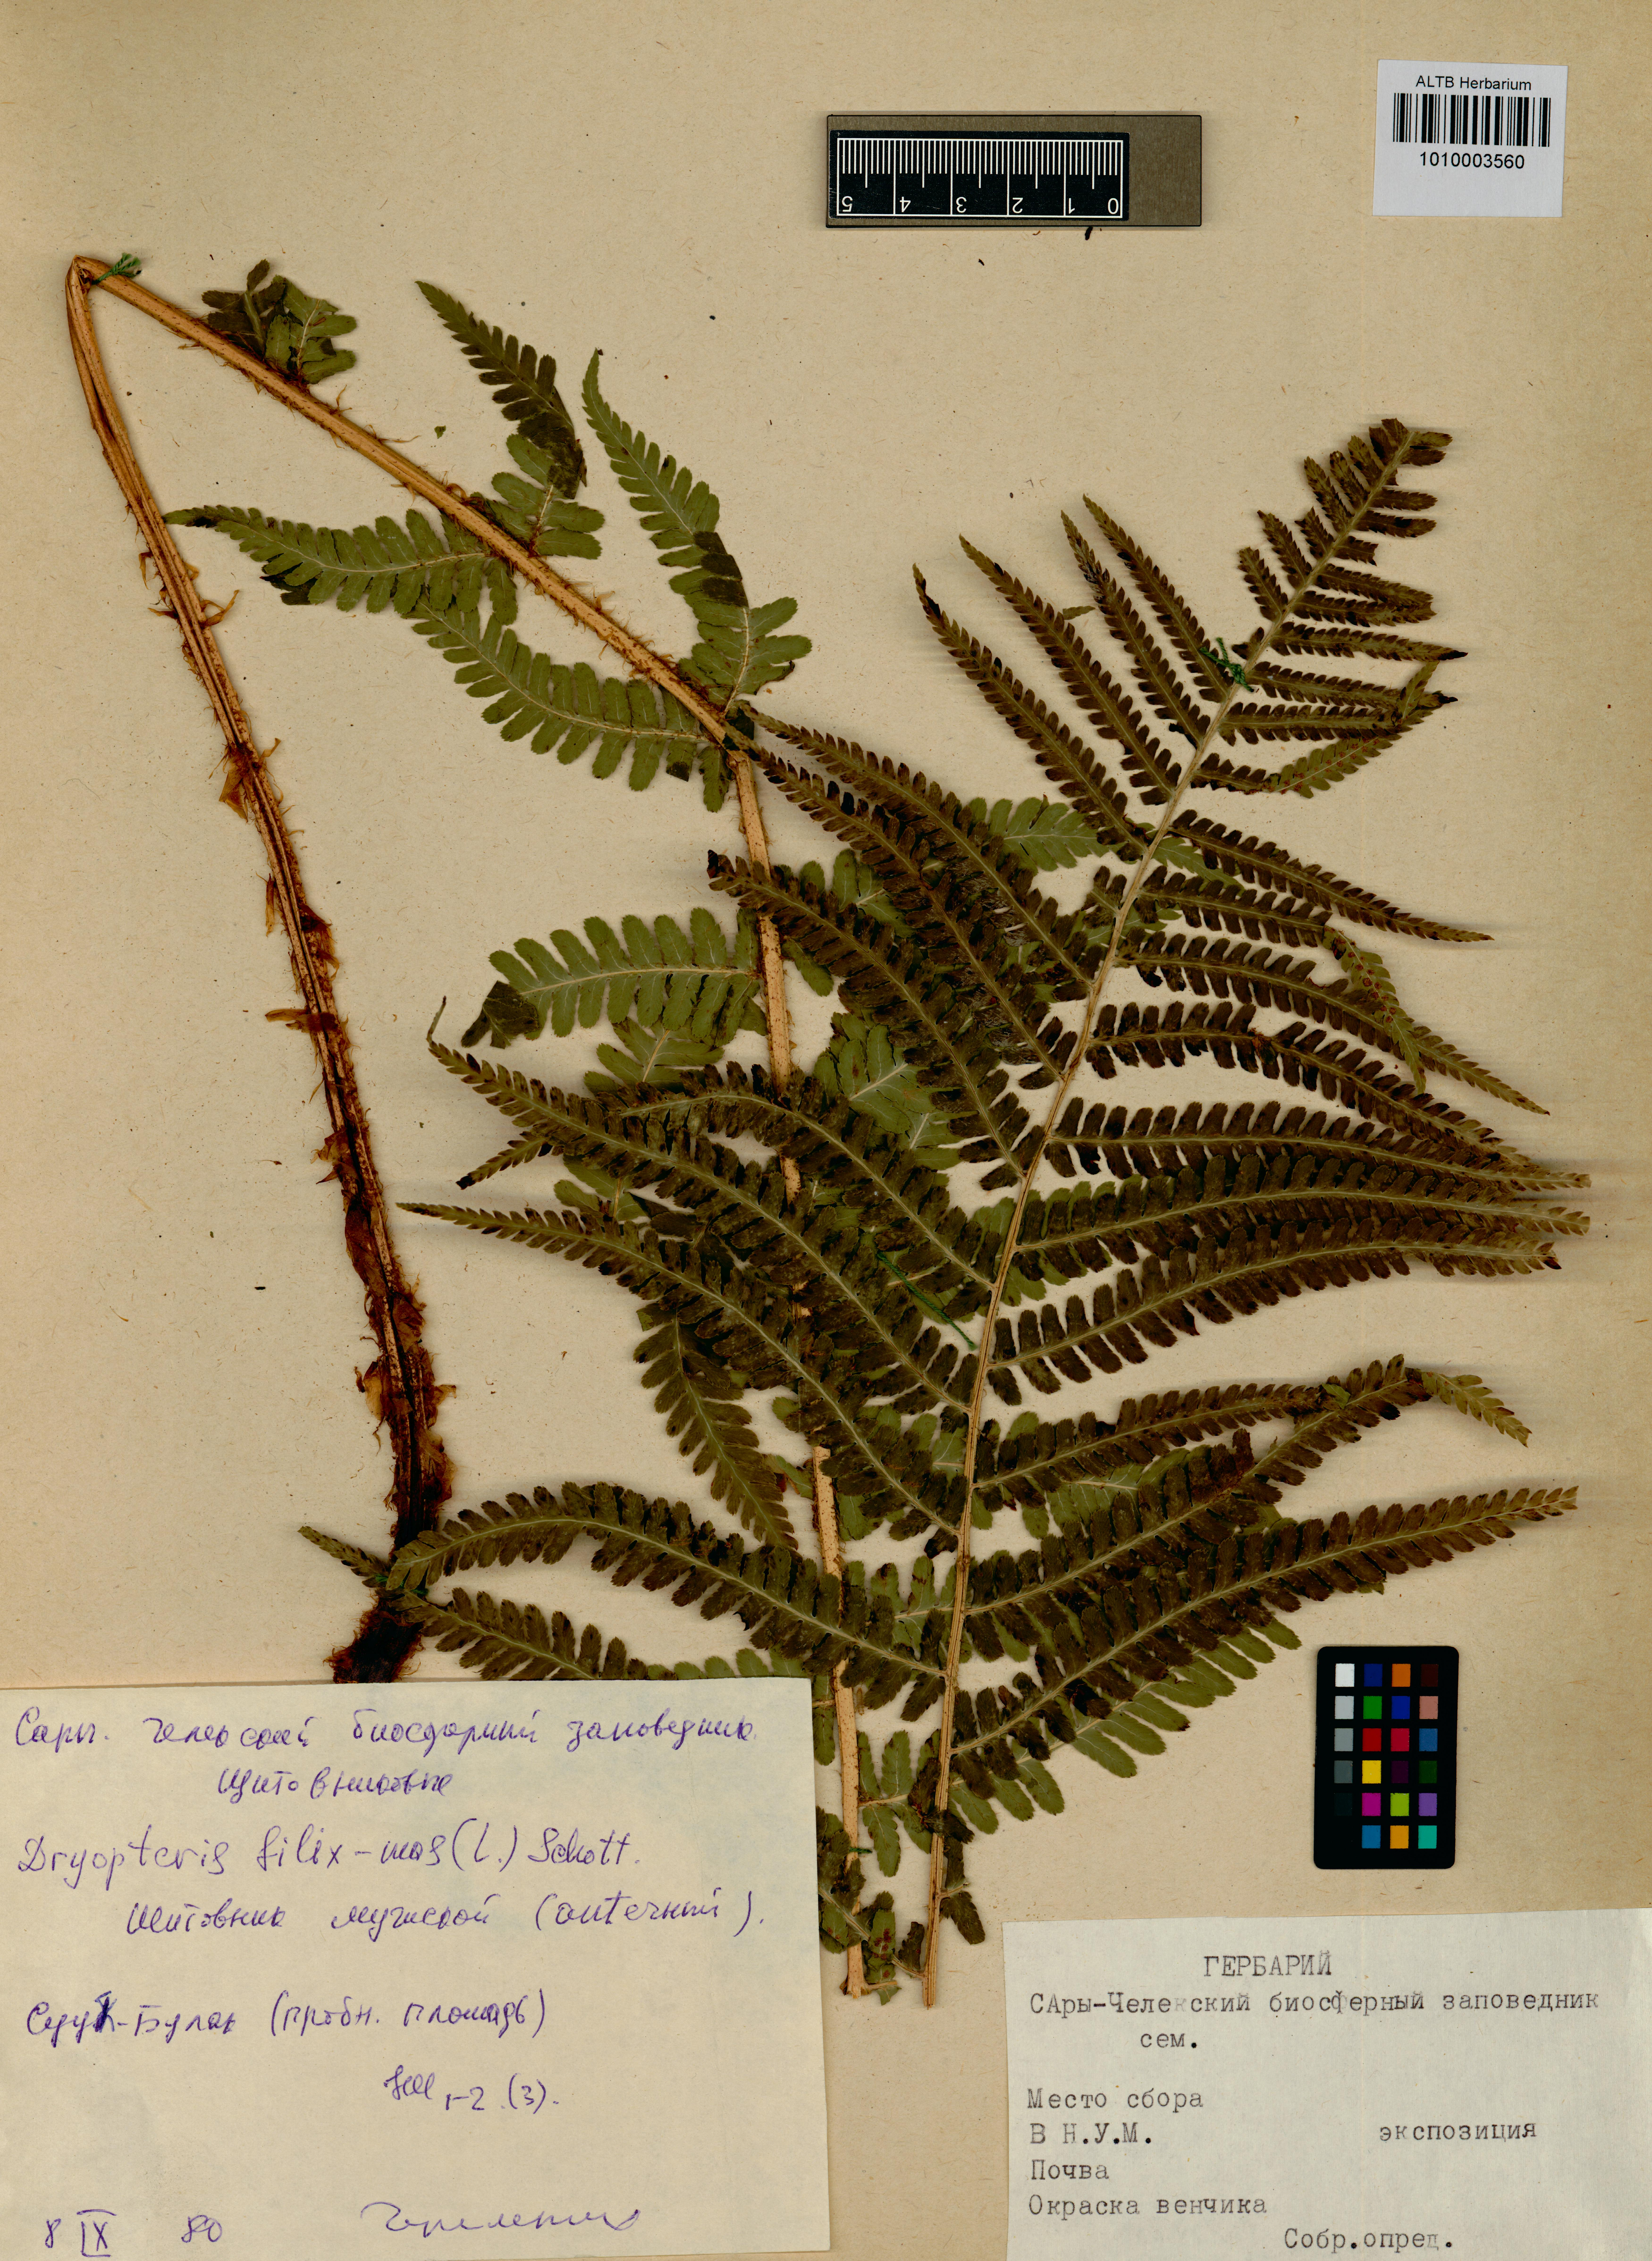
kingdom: Plantae
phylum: Tracheophyta
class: Polypodiopsida
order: Polypodiales
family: Dryopteridaceae
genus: Dryopteris
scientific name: Dryopteris filix-mas
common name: Male fern
